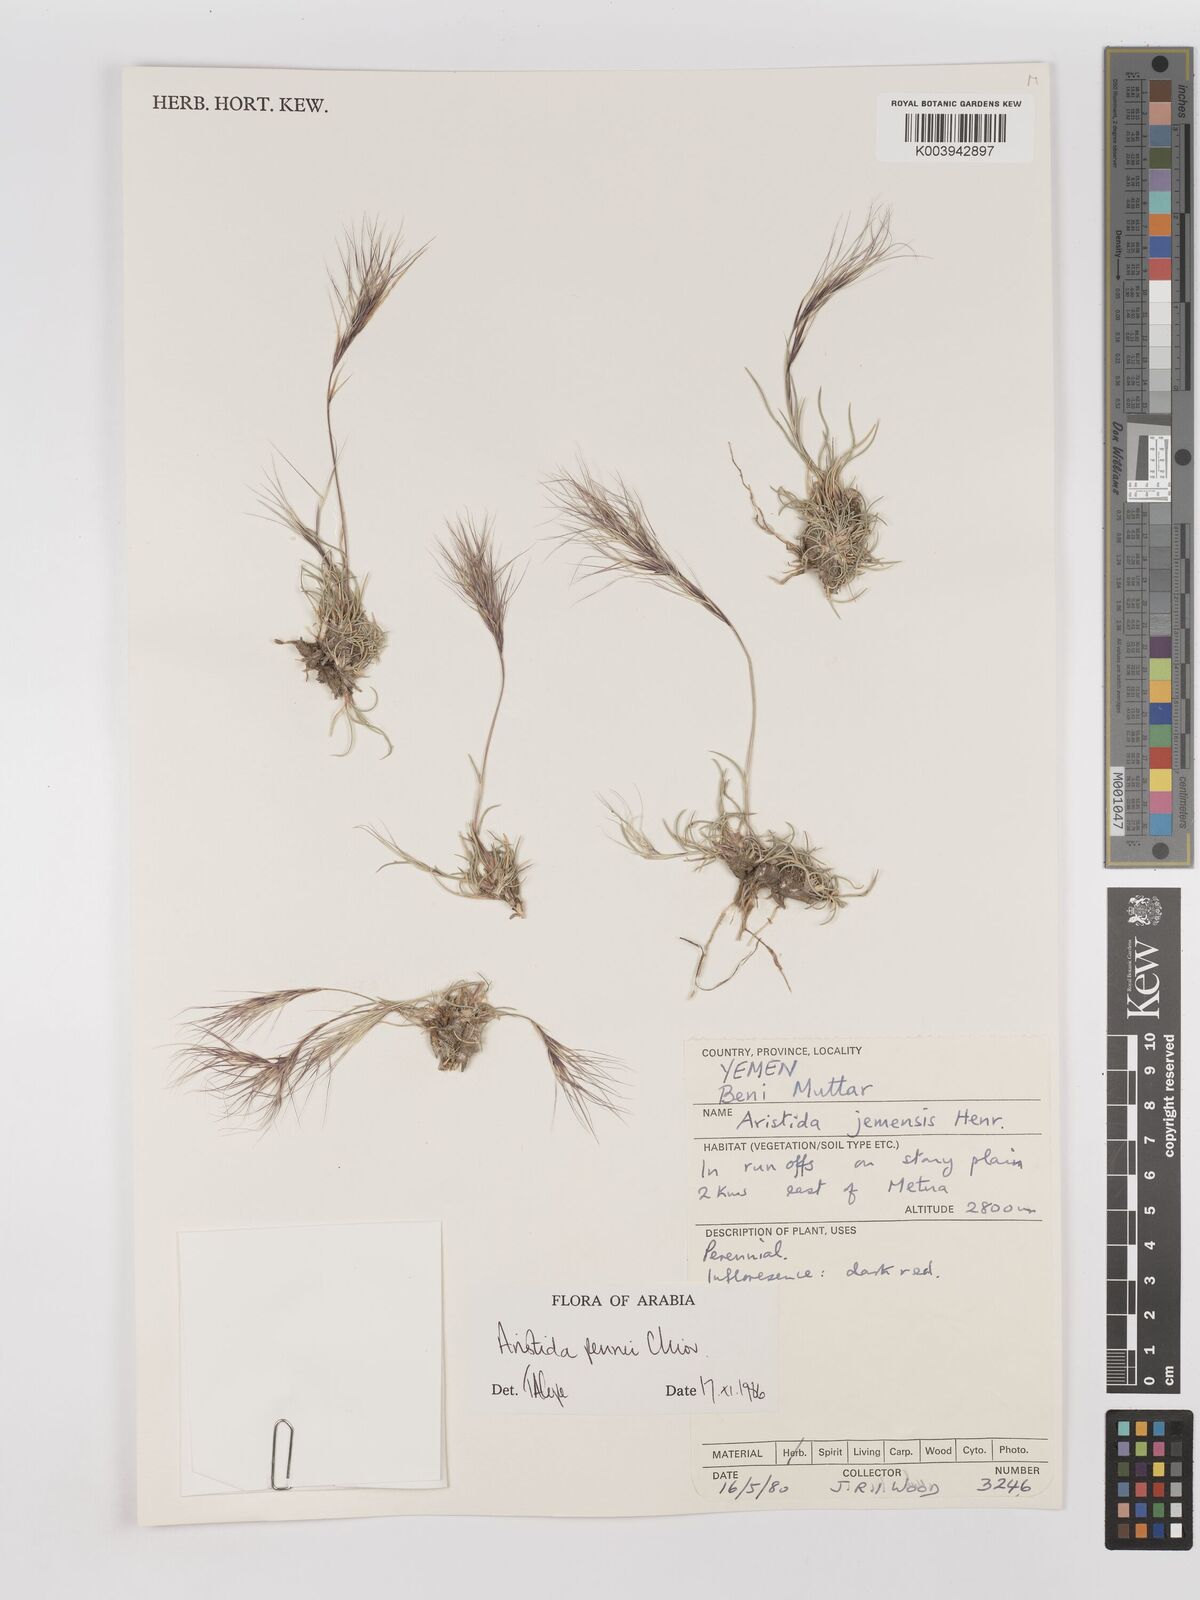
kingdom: Plantae
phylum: Tracheophyta
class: Liliopsida
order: Poales
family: Poaceae
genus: Aristida
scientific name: Aristida pennei
